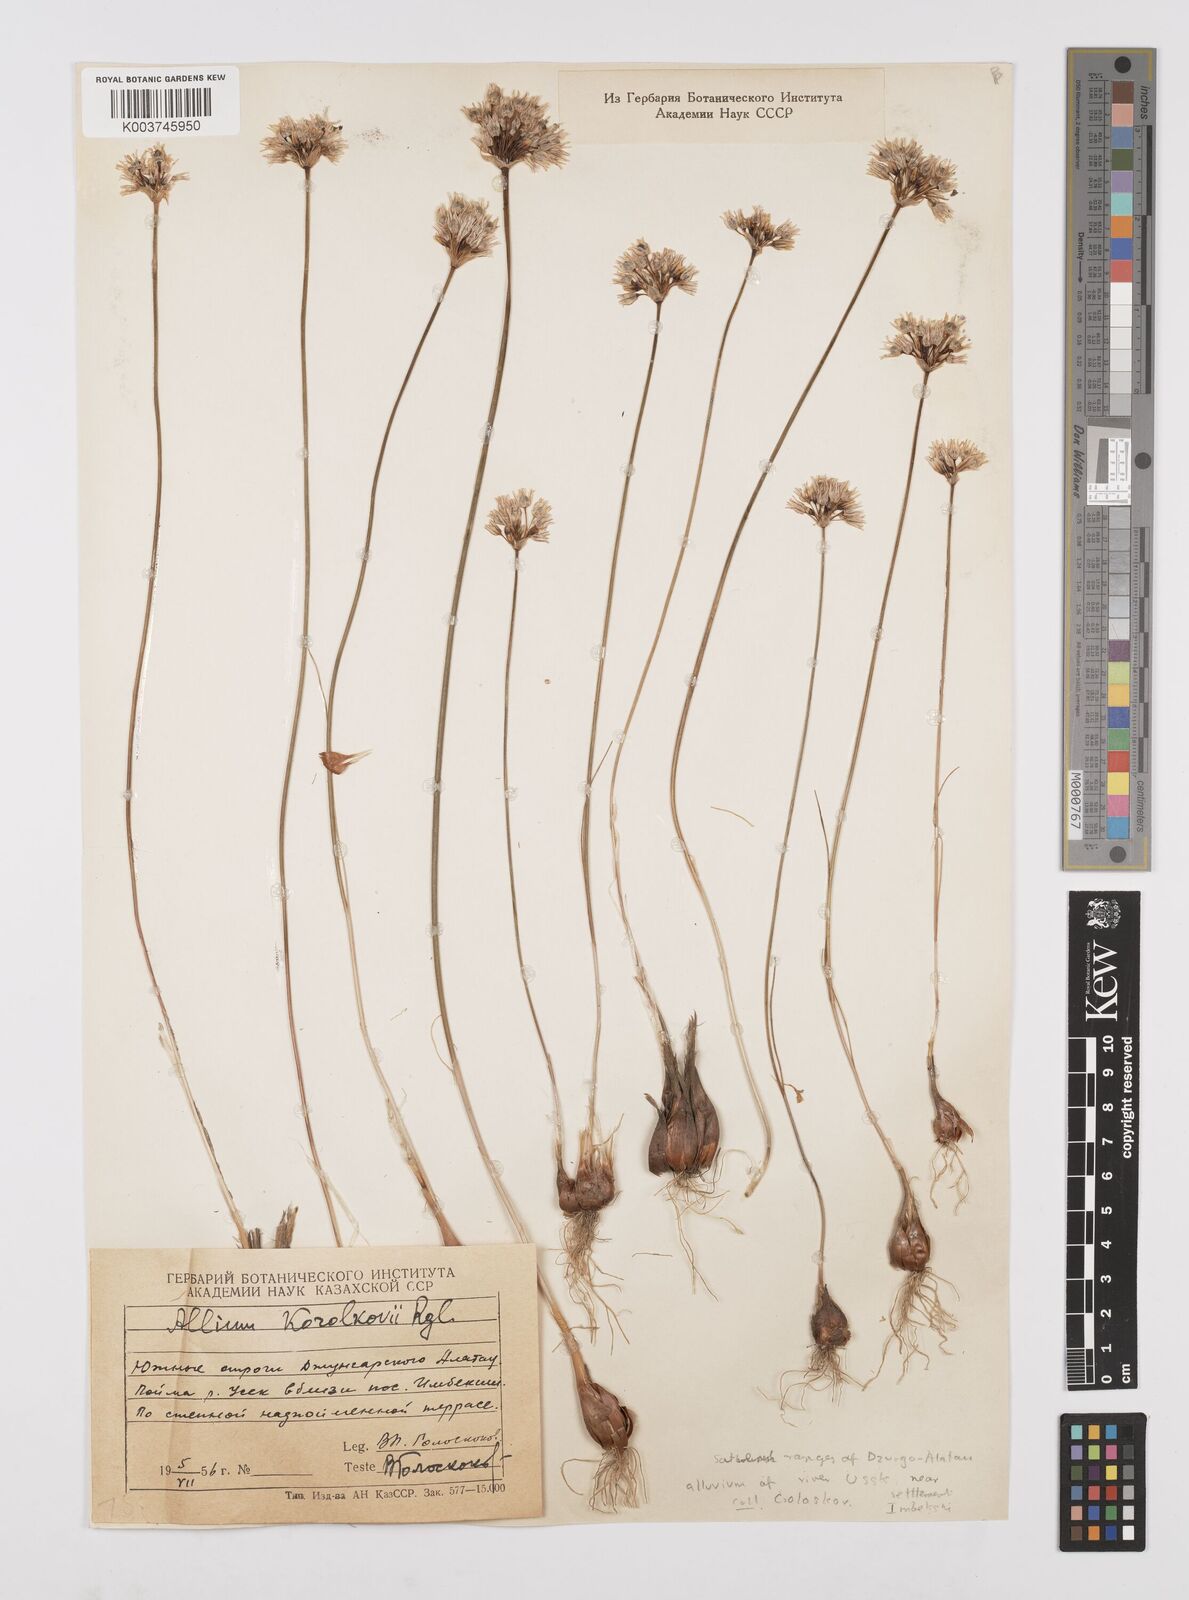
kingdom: Plantae
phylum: Tracheophyta
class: Liliopsida
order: Asparagales
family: Amaryllidaceae
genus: Allium
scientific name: Allium korolkowii
